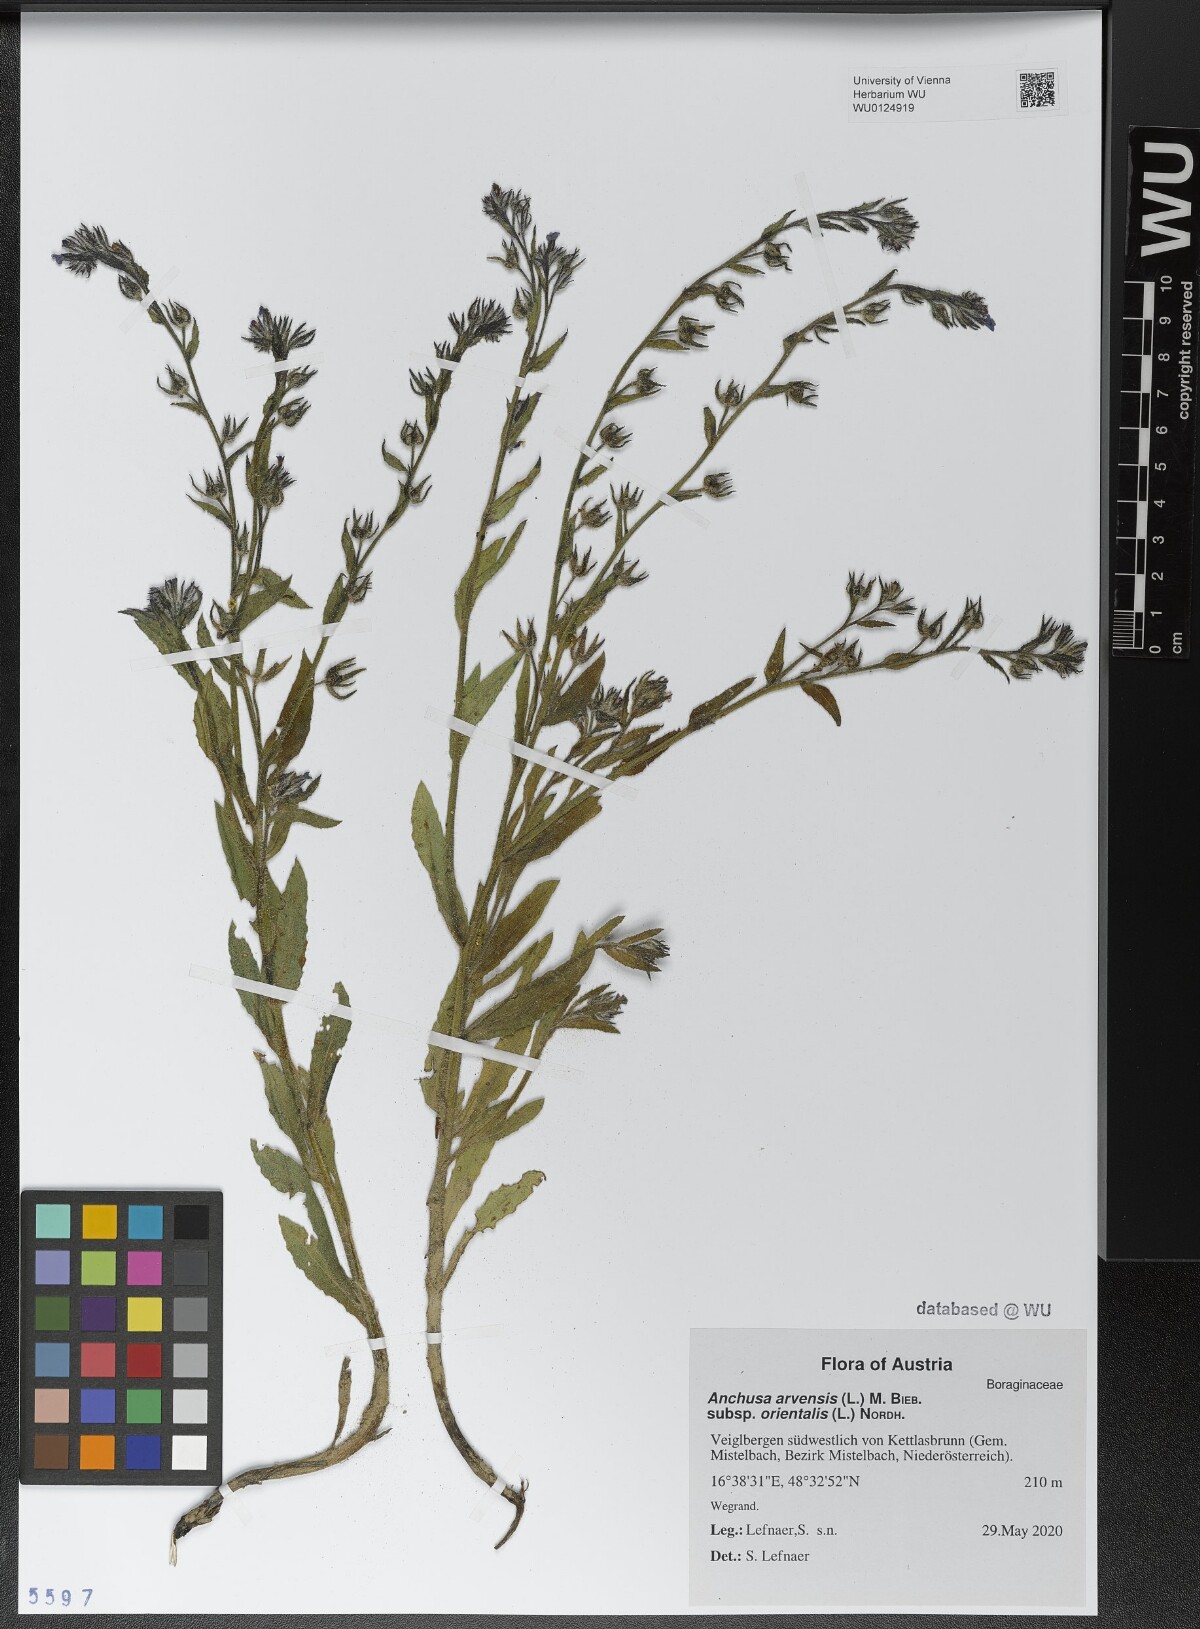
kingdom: Plantae
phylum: Tracheophyta
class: Magnoliopsida
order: Boraginales
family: Boraginaceae
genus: Lycopsis
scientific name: Lycopsis arvensis
